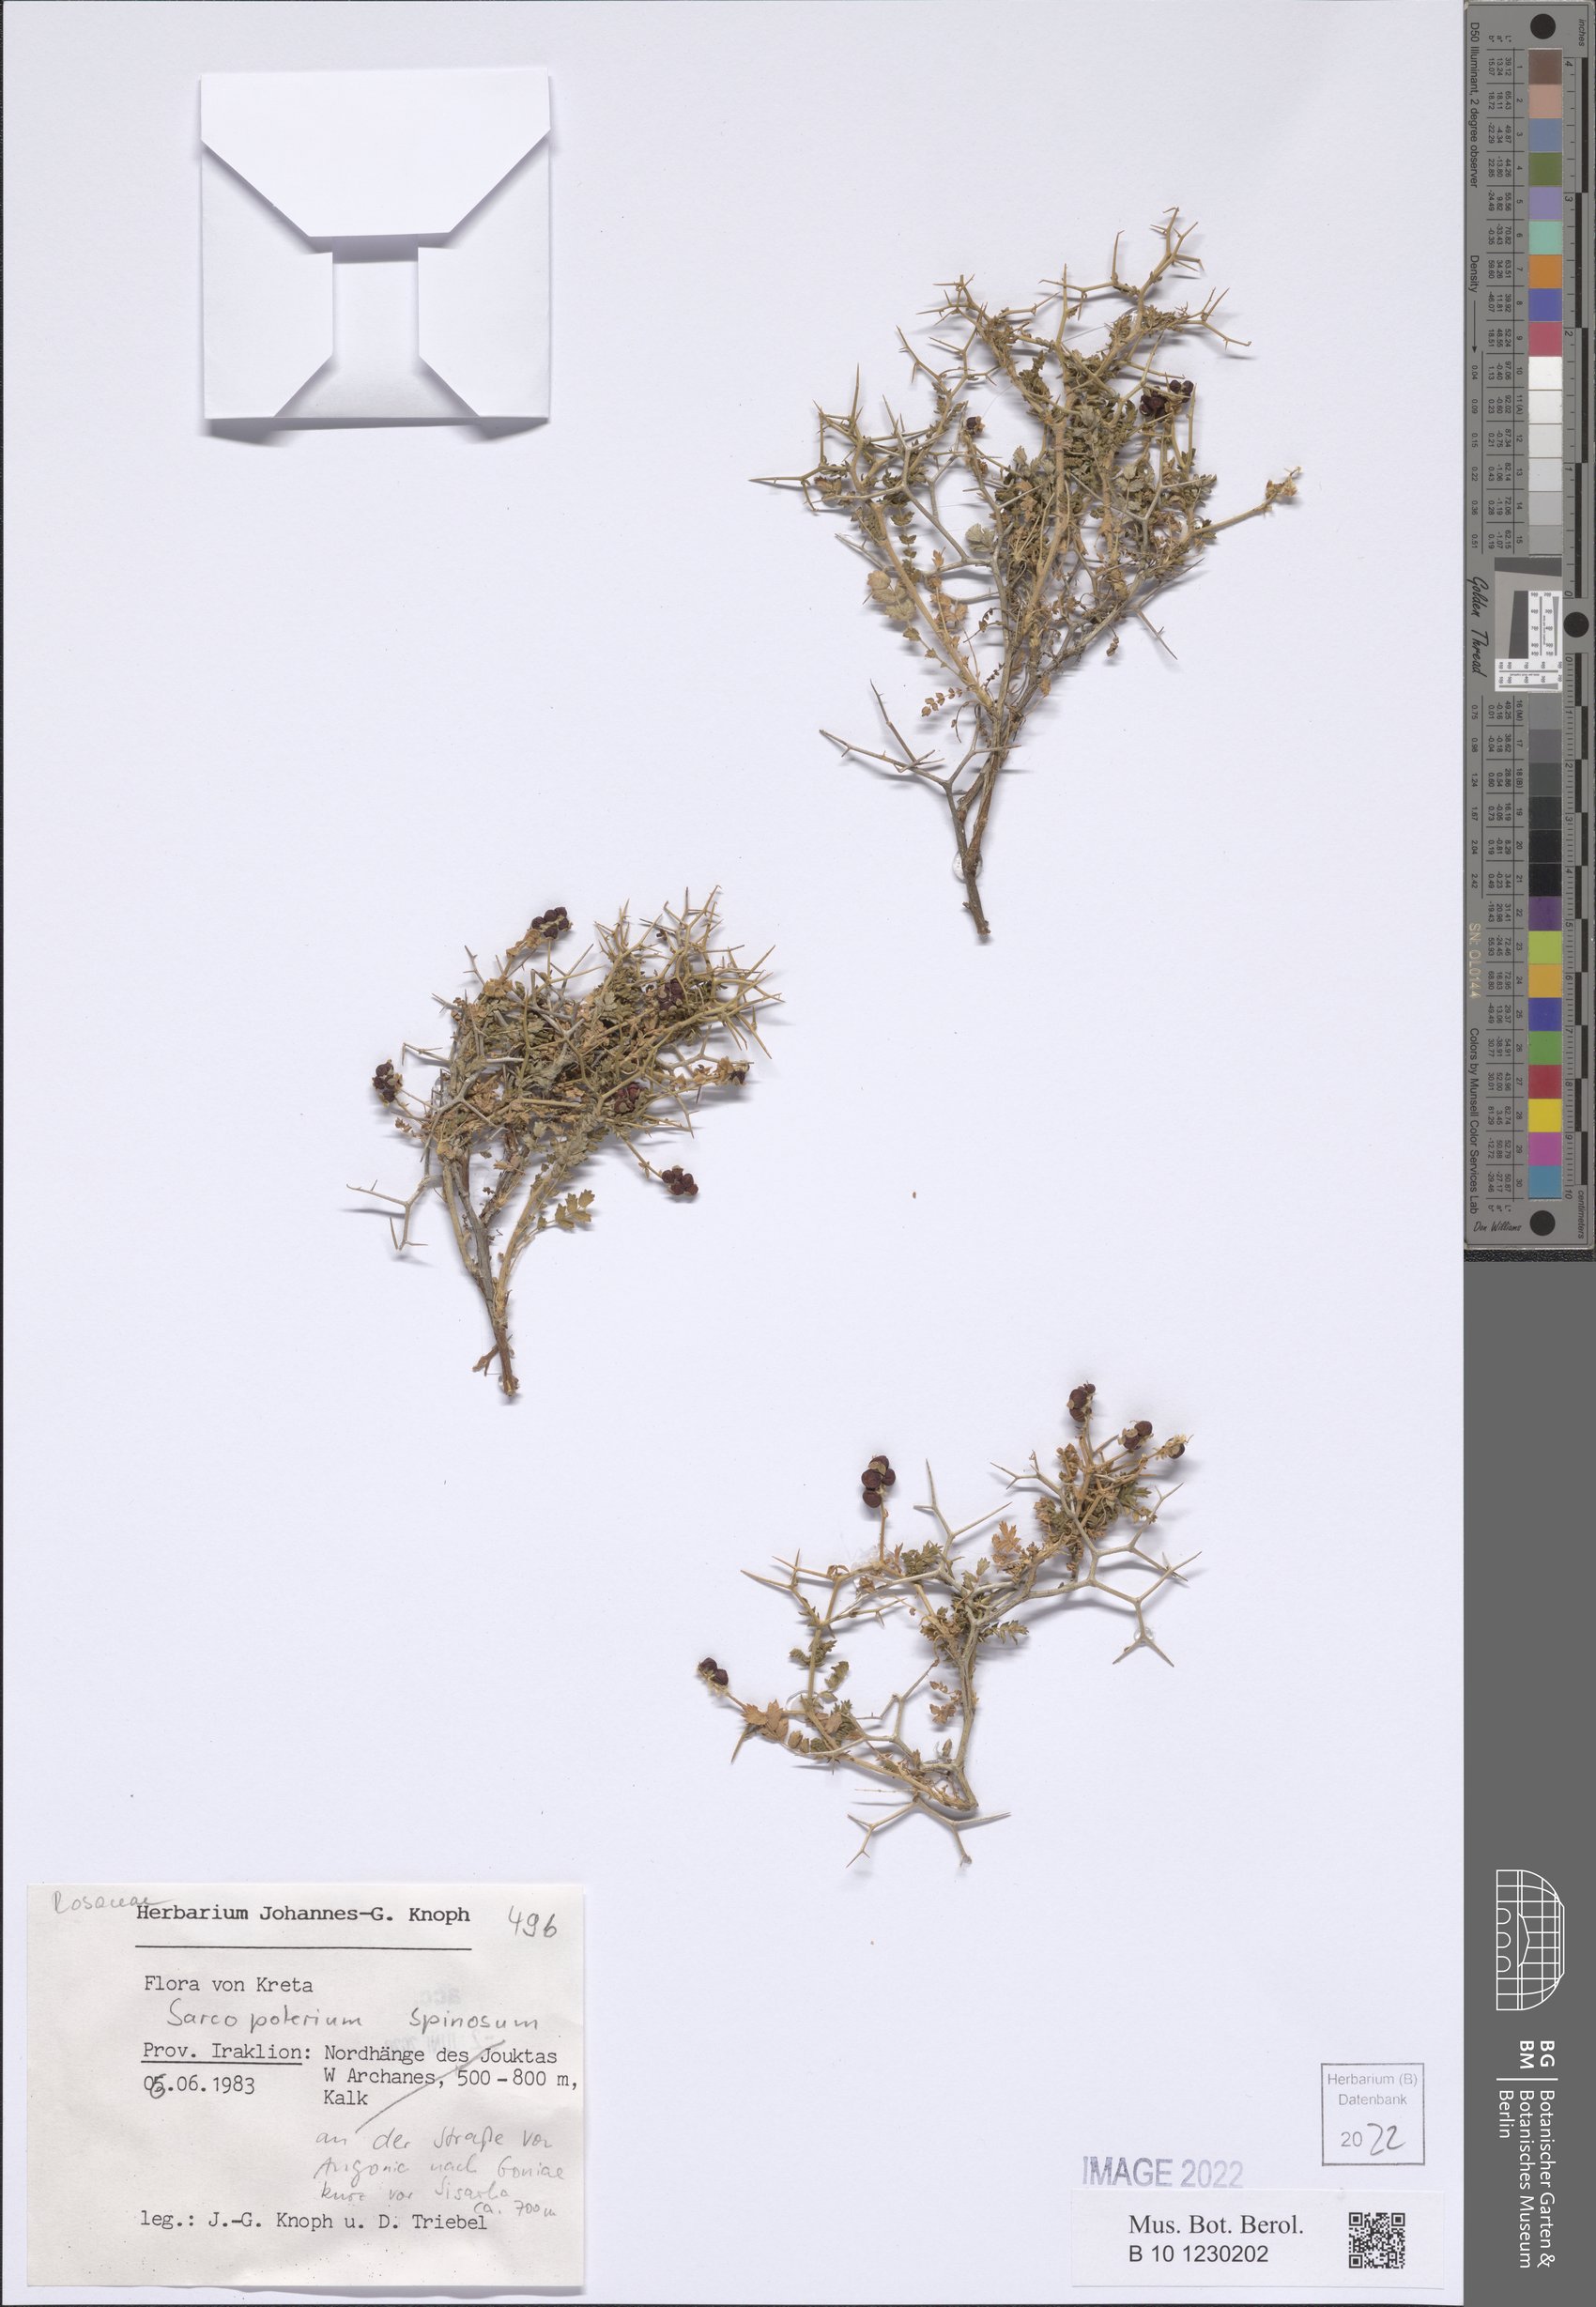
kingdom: Plantae
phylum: Tracheophyta
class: Magnoliopsida
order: Rosales
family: Rosaceae
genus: Sarcopoterium
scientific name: Sarcopoterium spinosum
